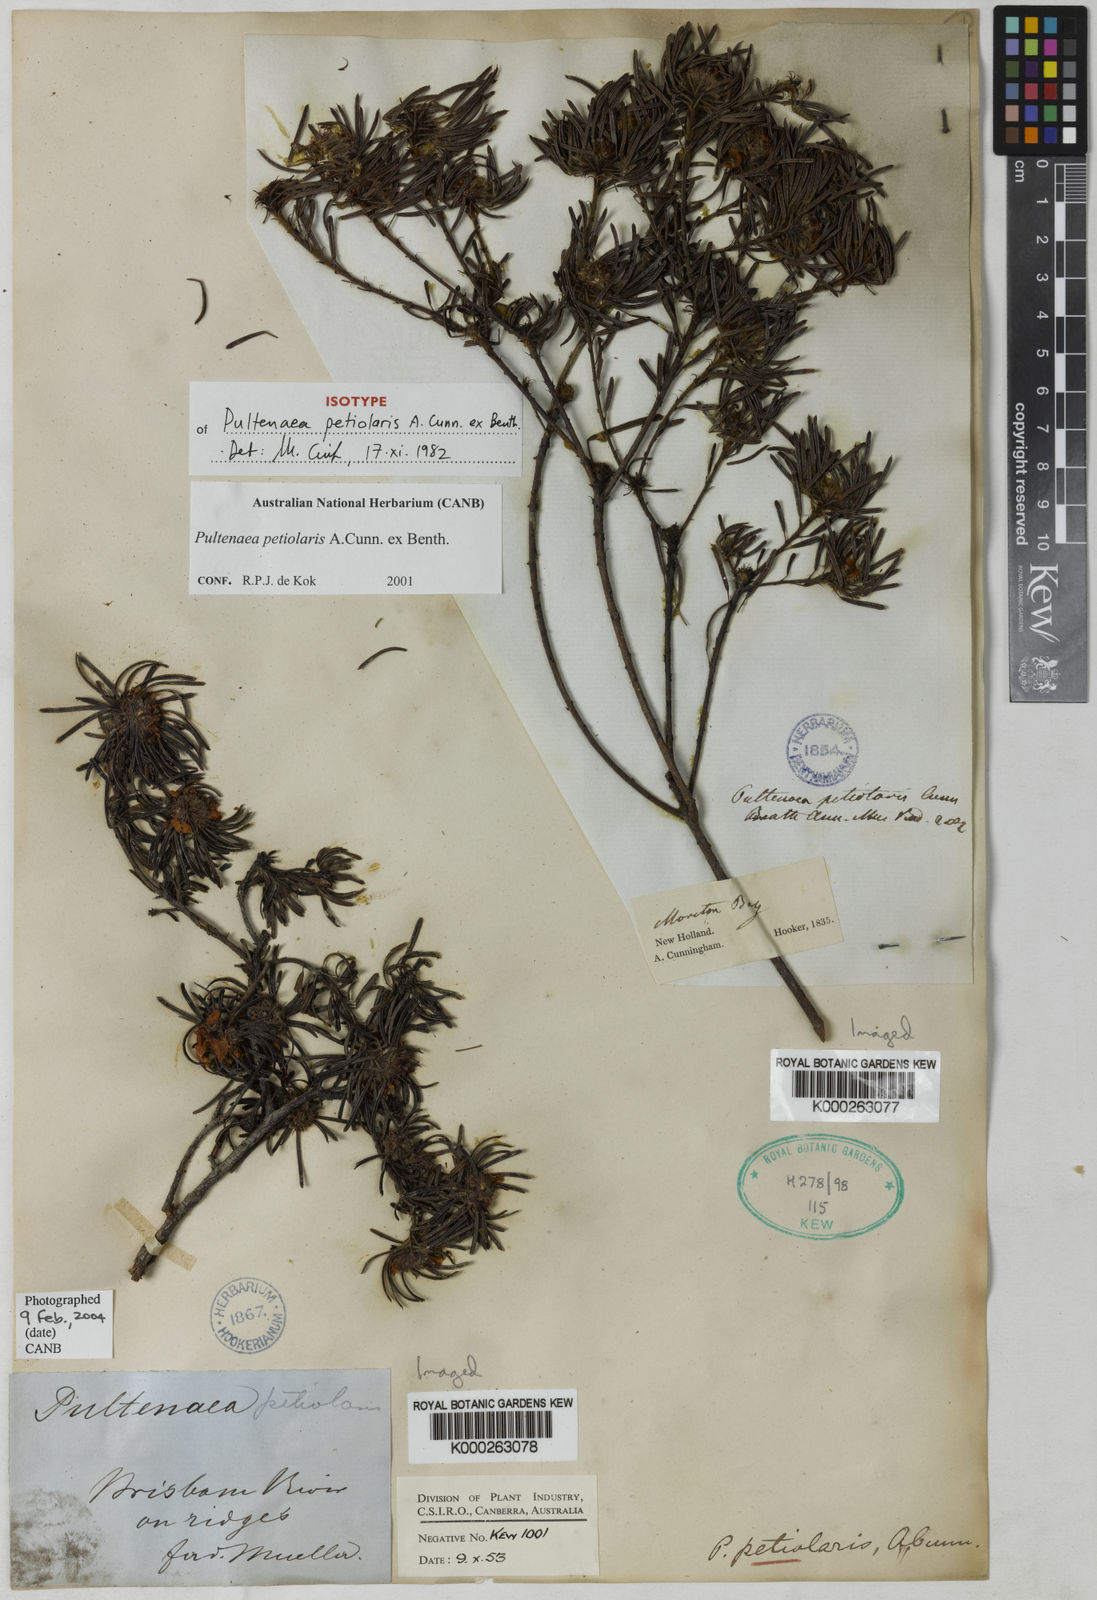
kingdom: Plantae
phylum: Tracheophyta
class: Magnoliopsida
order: Fabales
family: Fabaceae
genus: Pultenaea
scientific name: Pultenaea petiolaris
